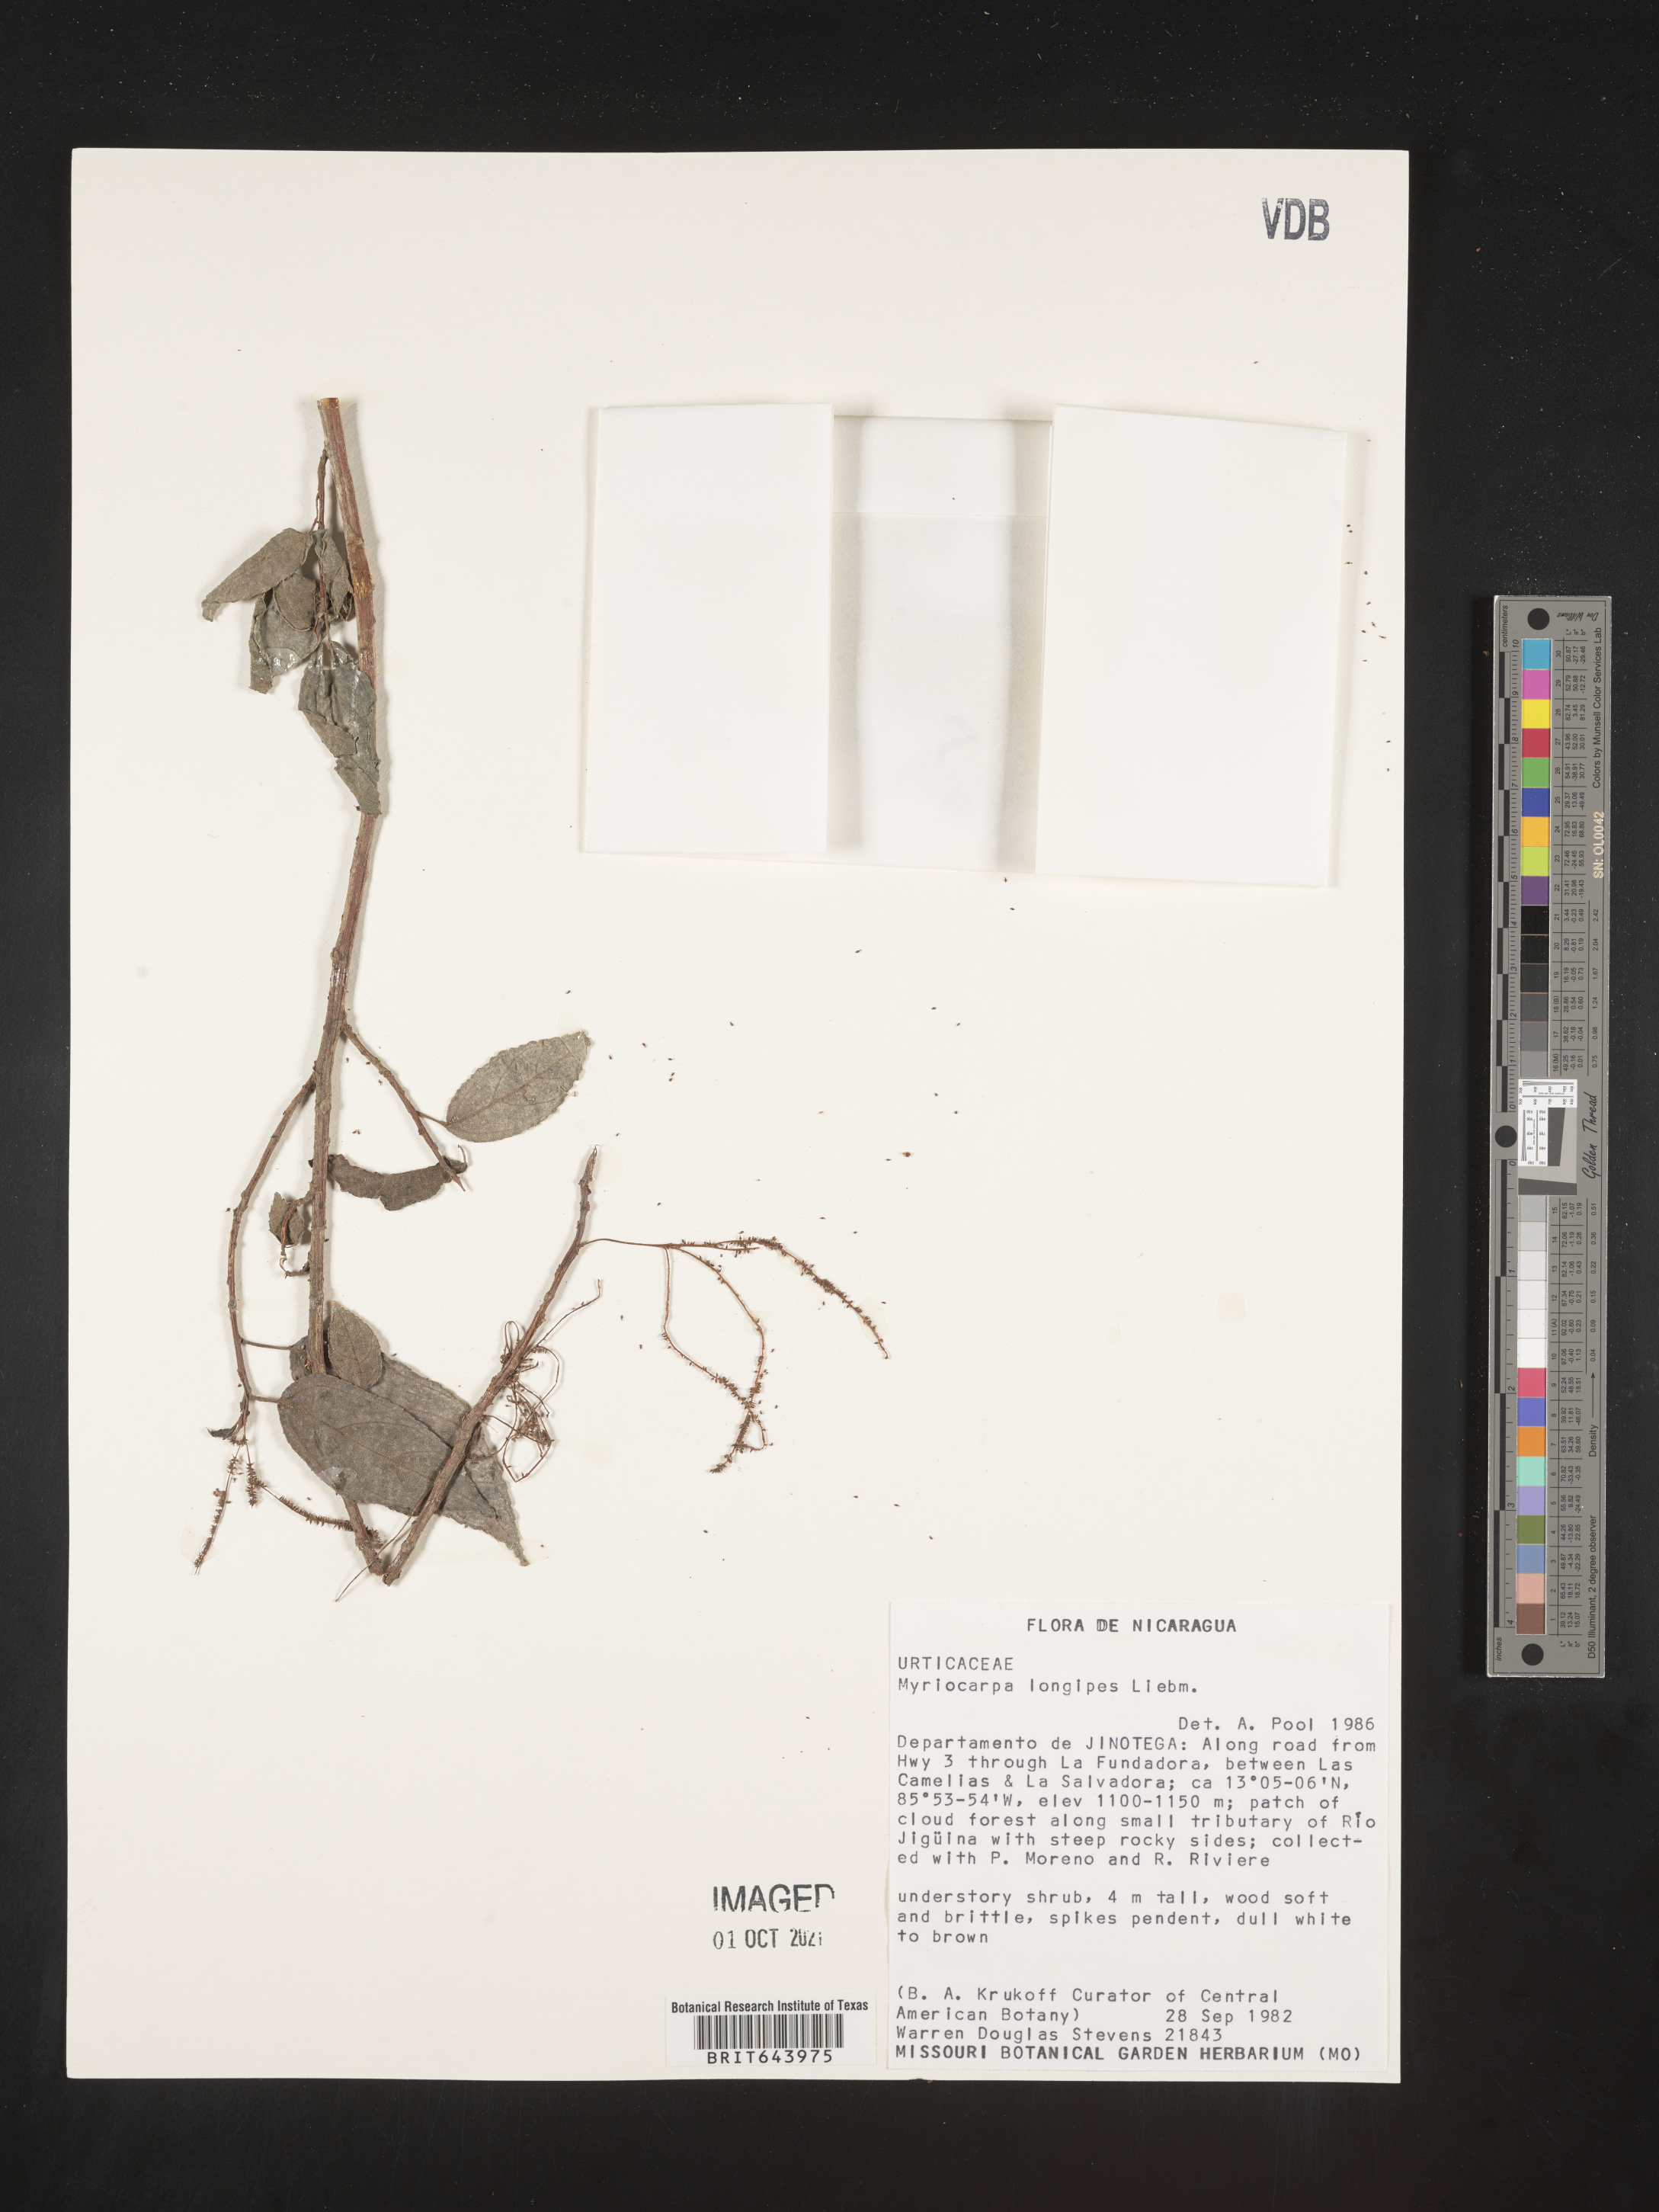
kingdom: Plantae
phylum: Tracheophyta
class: Magnoliopsida
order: Rosales
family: Urticaceae
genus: Myriocarpa
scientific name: Myriocarpa
